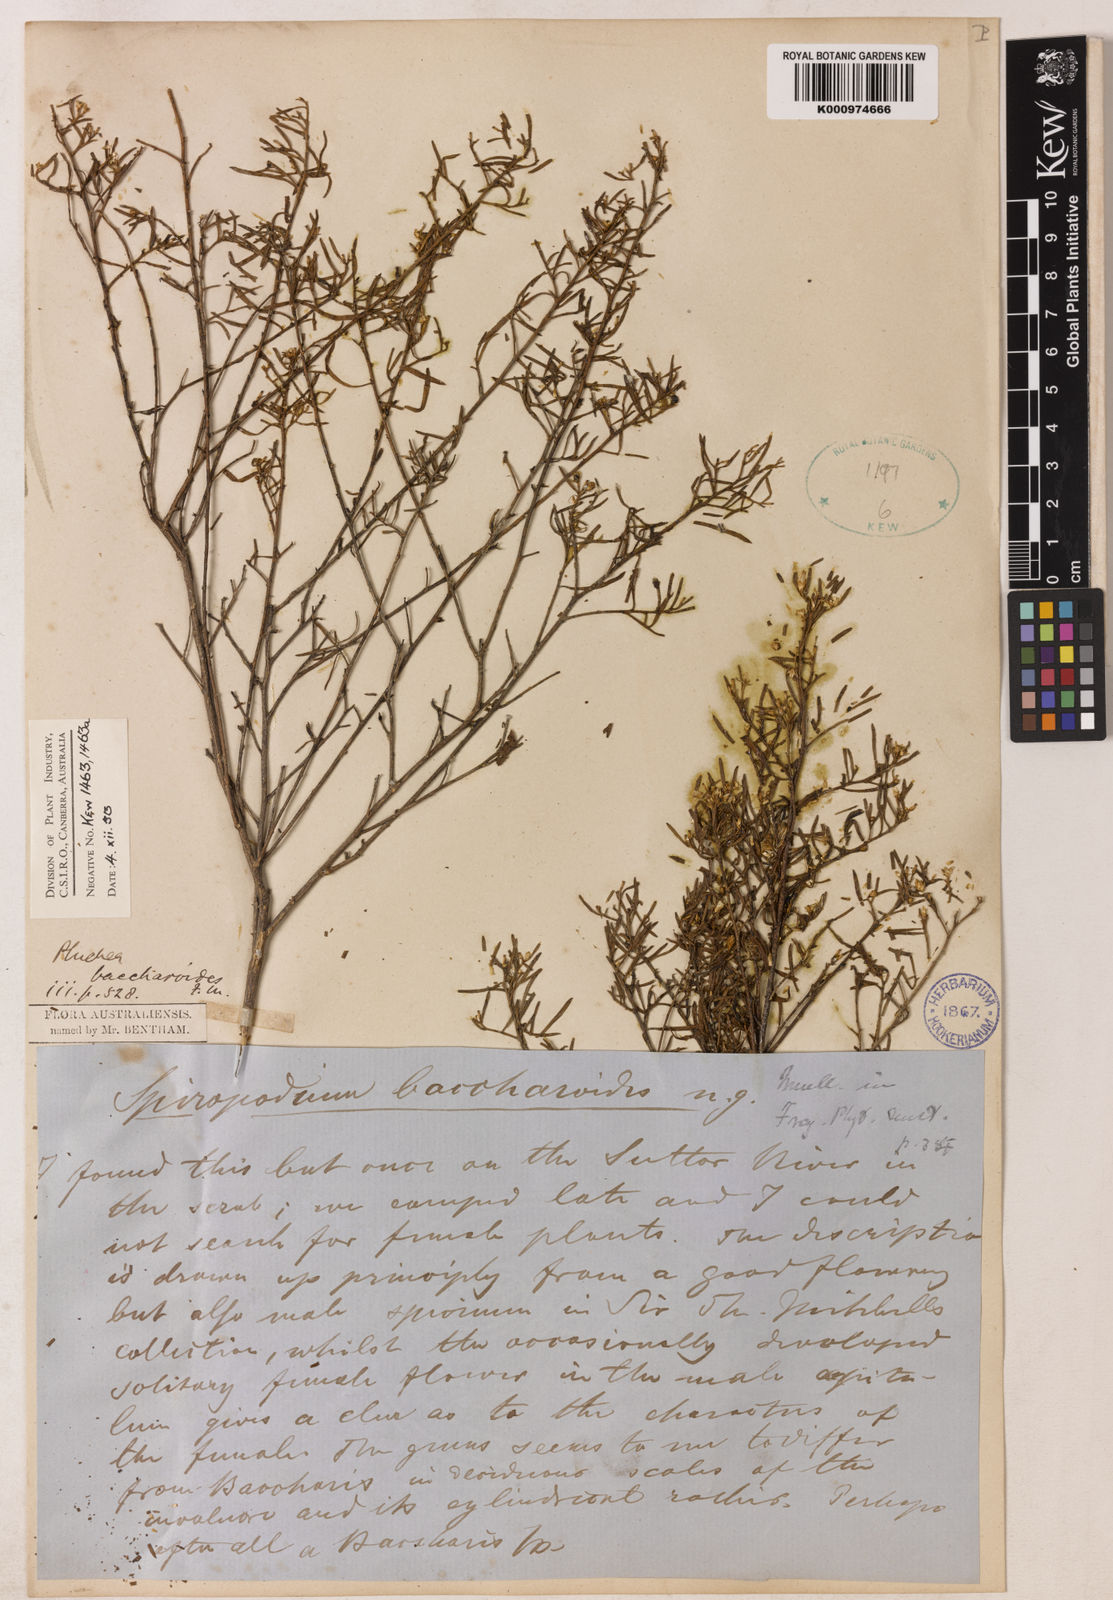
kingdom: Plantae
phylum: Tracheophyta
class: Magnoliopsida
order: Asterales
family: Asteraceae
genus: Pluchea
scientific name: Pluchea baccharioides
